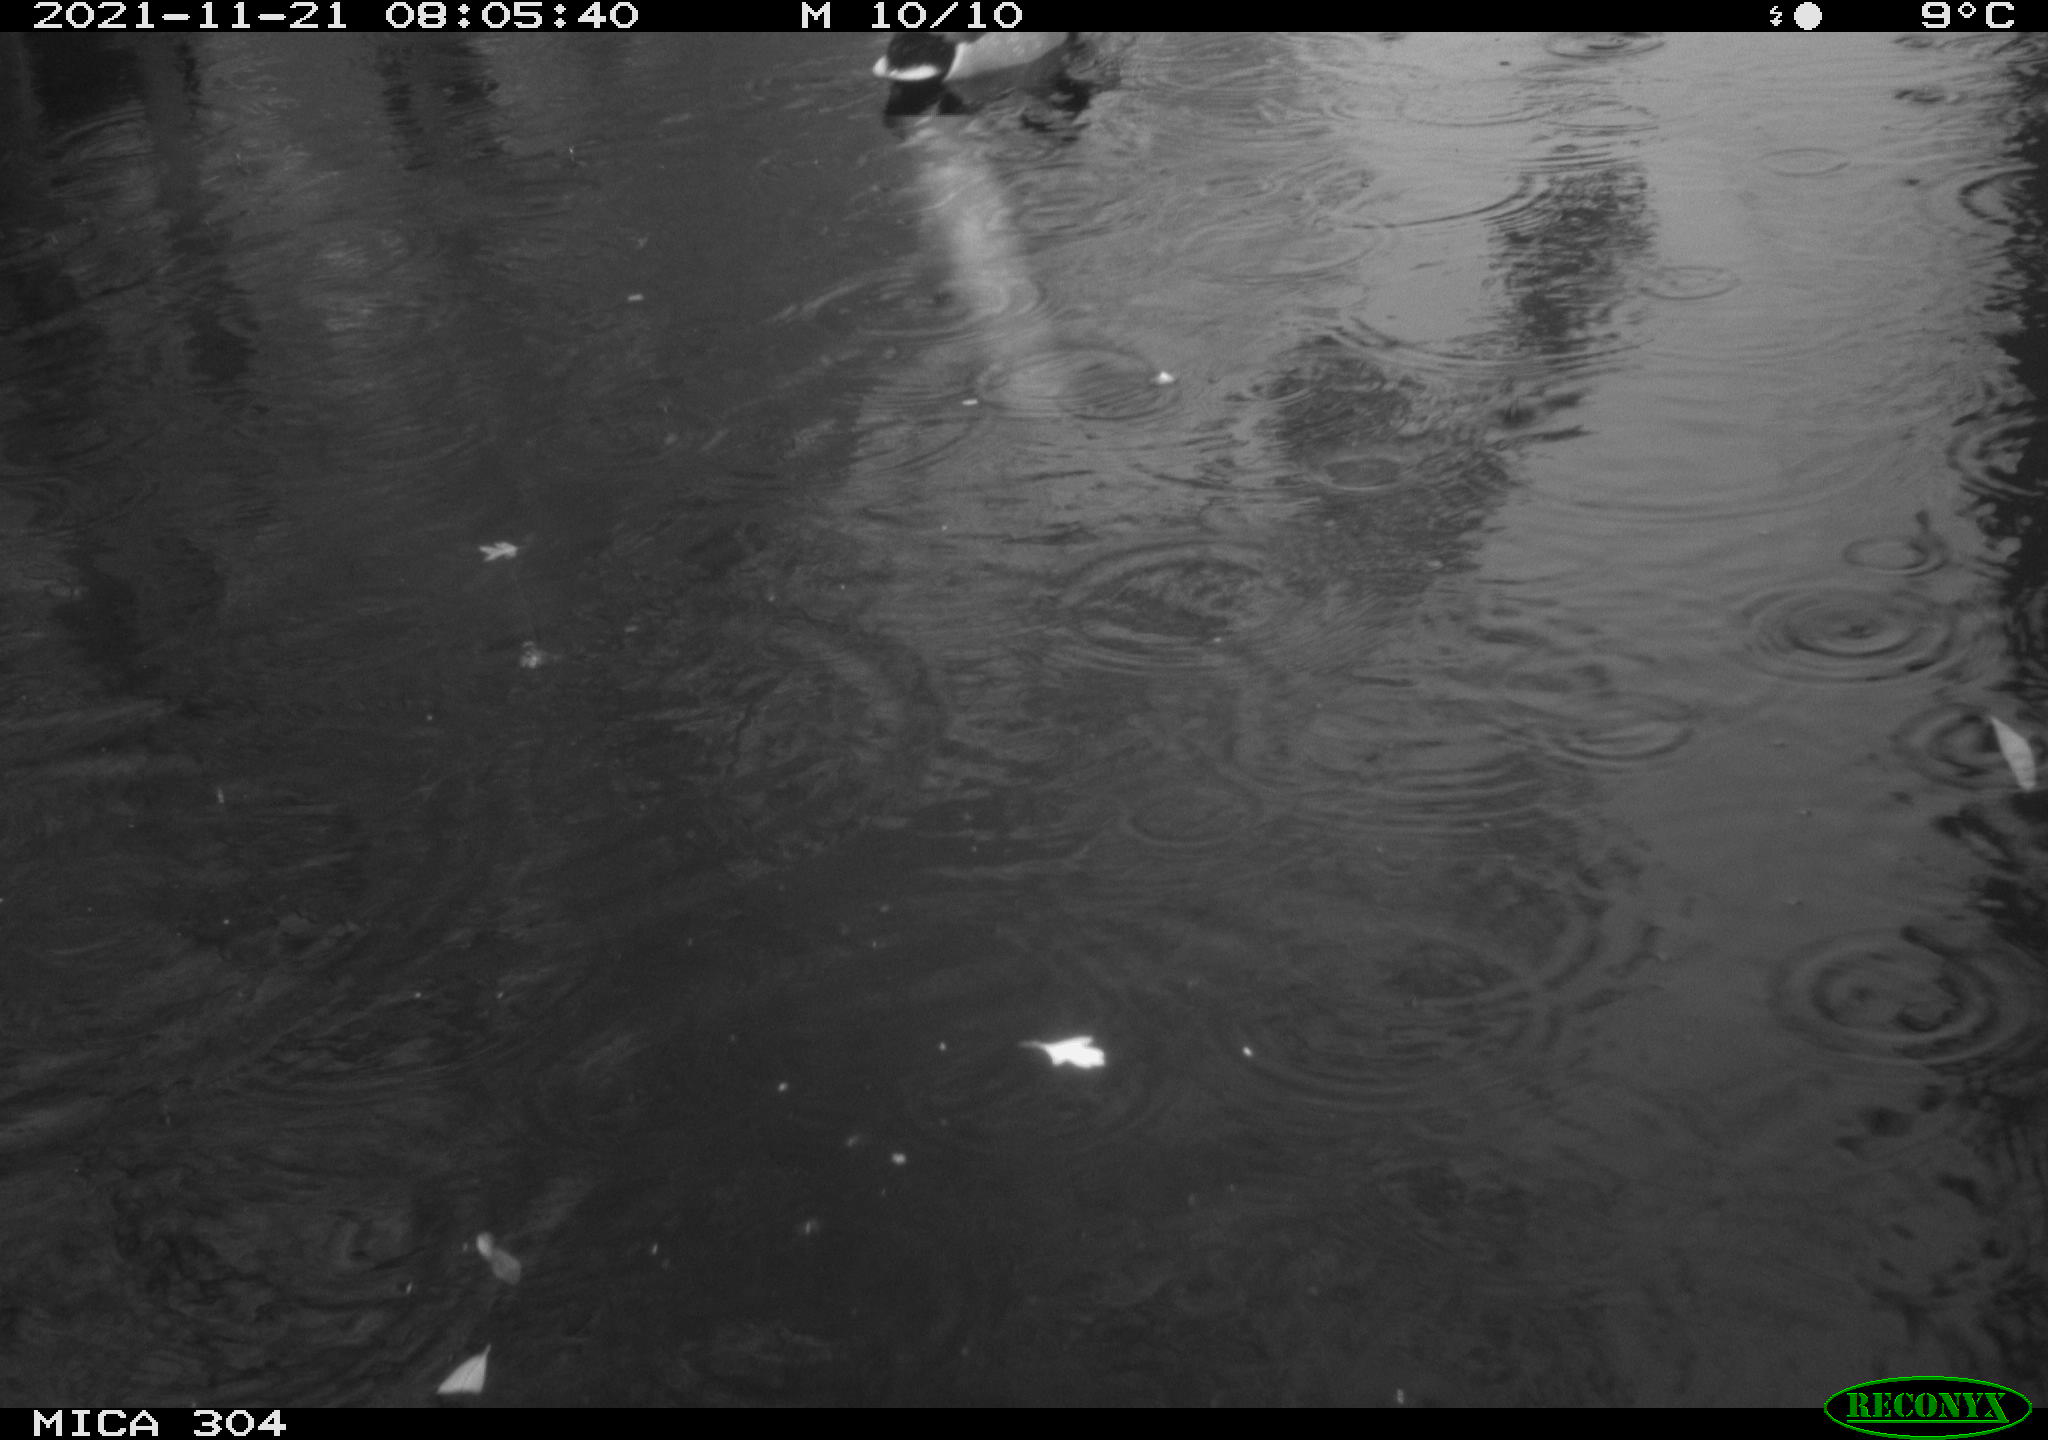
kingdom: Animalia
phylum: Chordata
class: Aves
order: Anseriformes
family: Anatidae
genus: Anas
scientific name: Anas platyrhynchos
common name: Mallard
